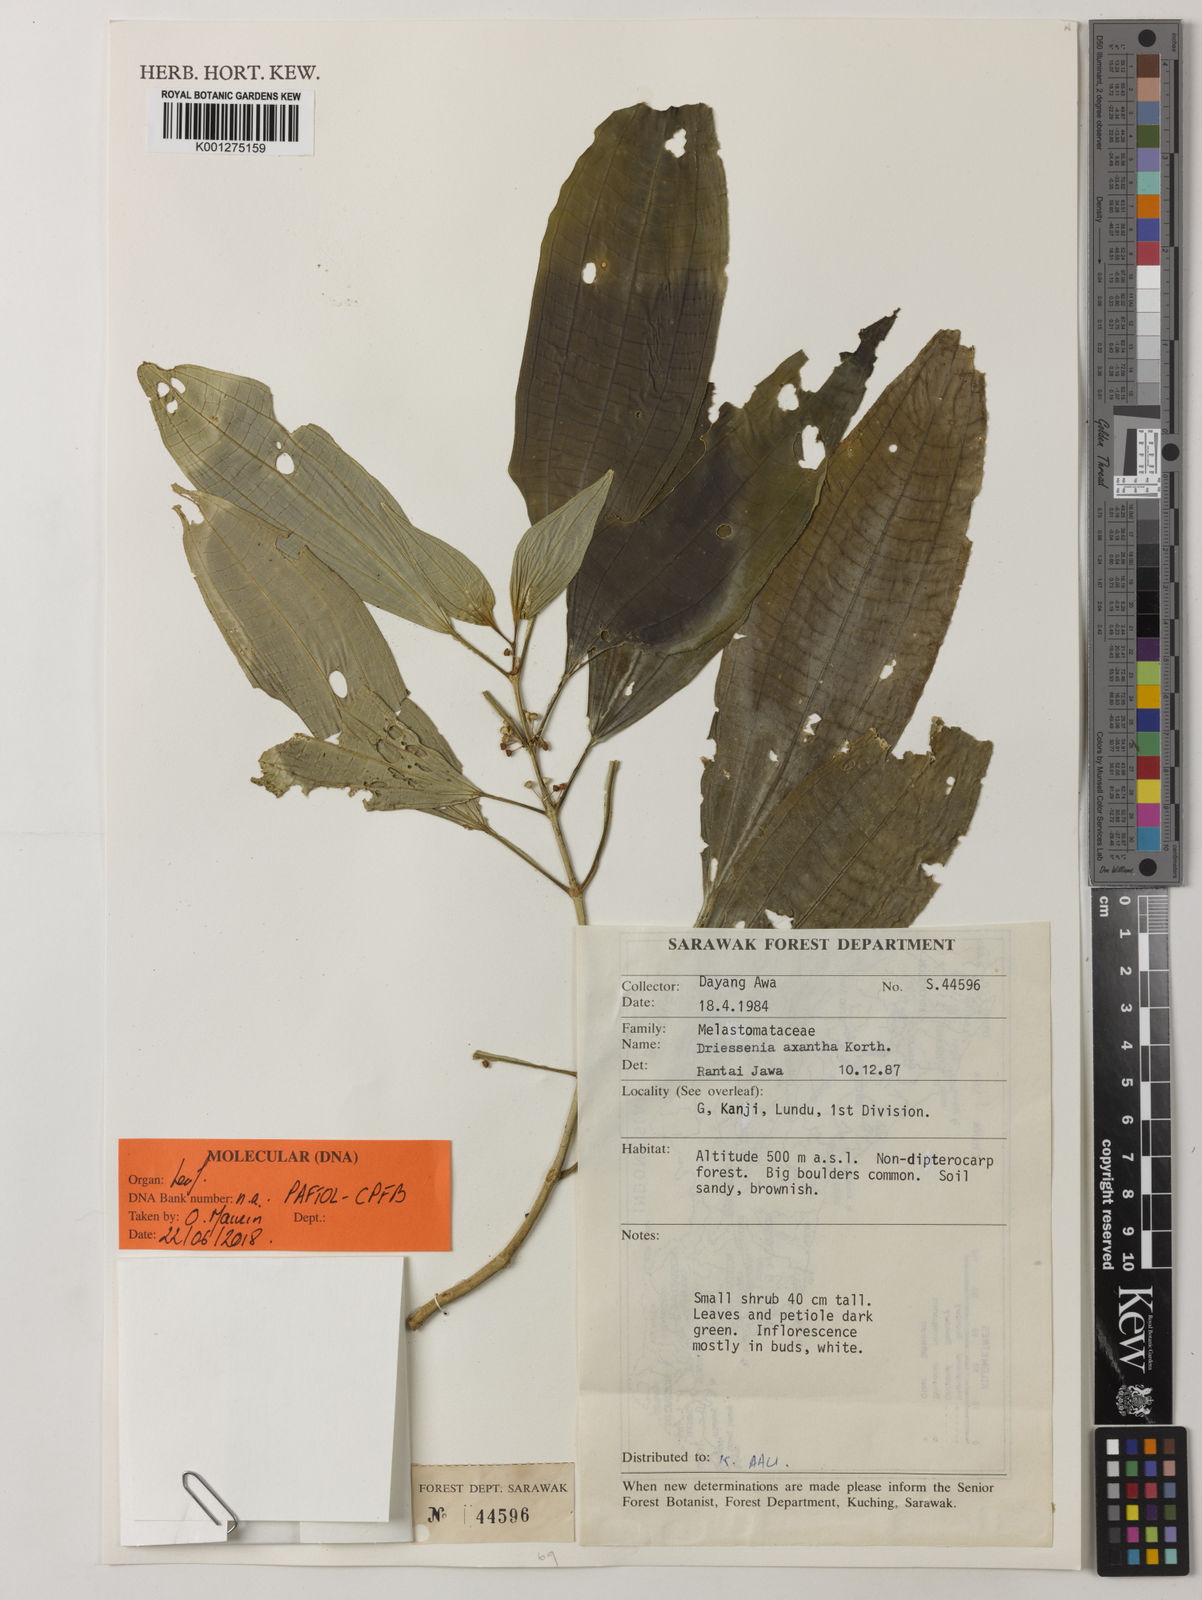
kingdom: Plantae
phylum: Tracheophyta
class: Magnoliopsida
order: Myrtales
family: Melastomataceae
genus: Driessenia
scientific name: Driessenia axantha
